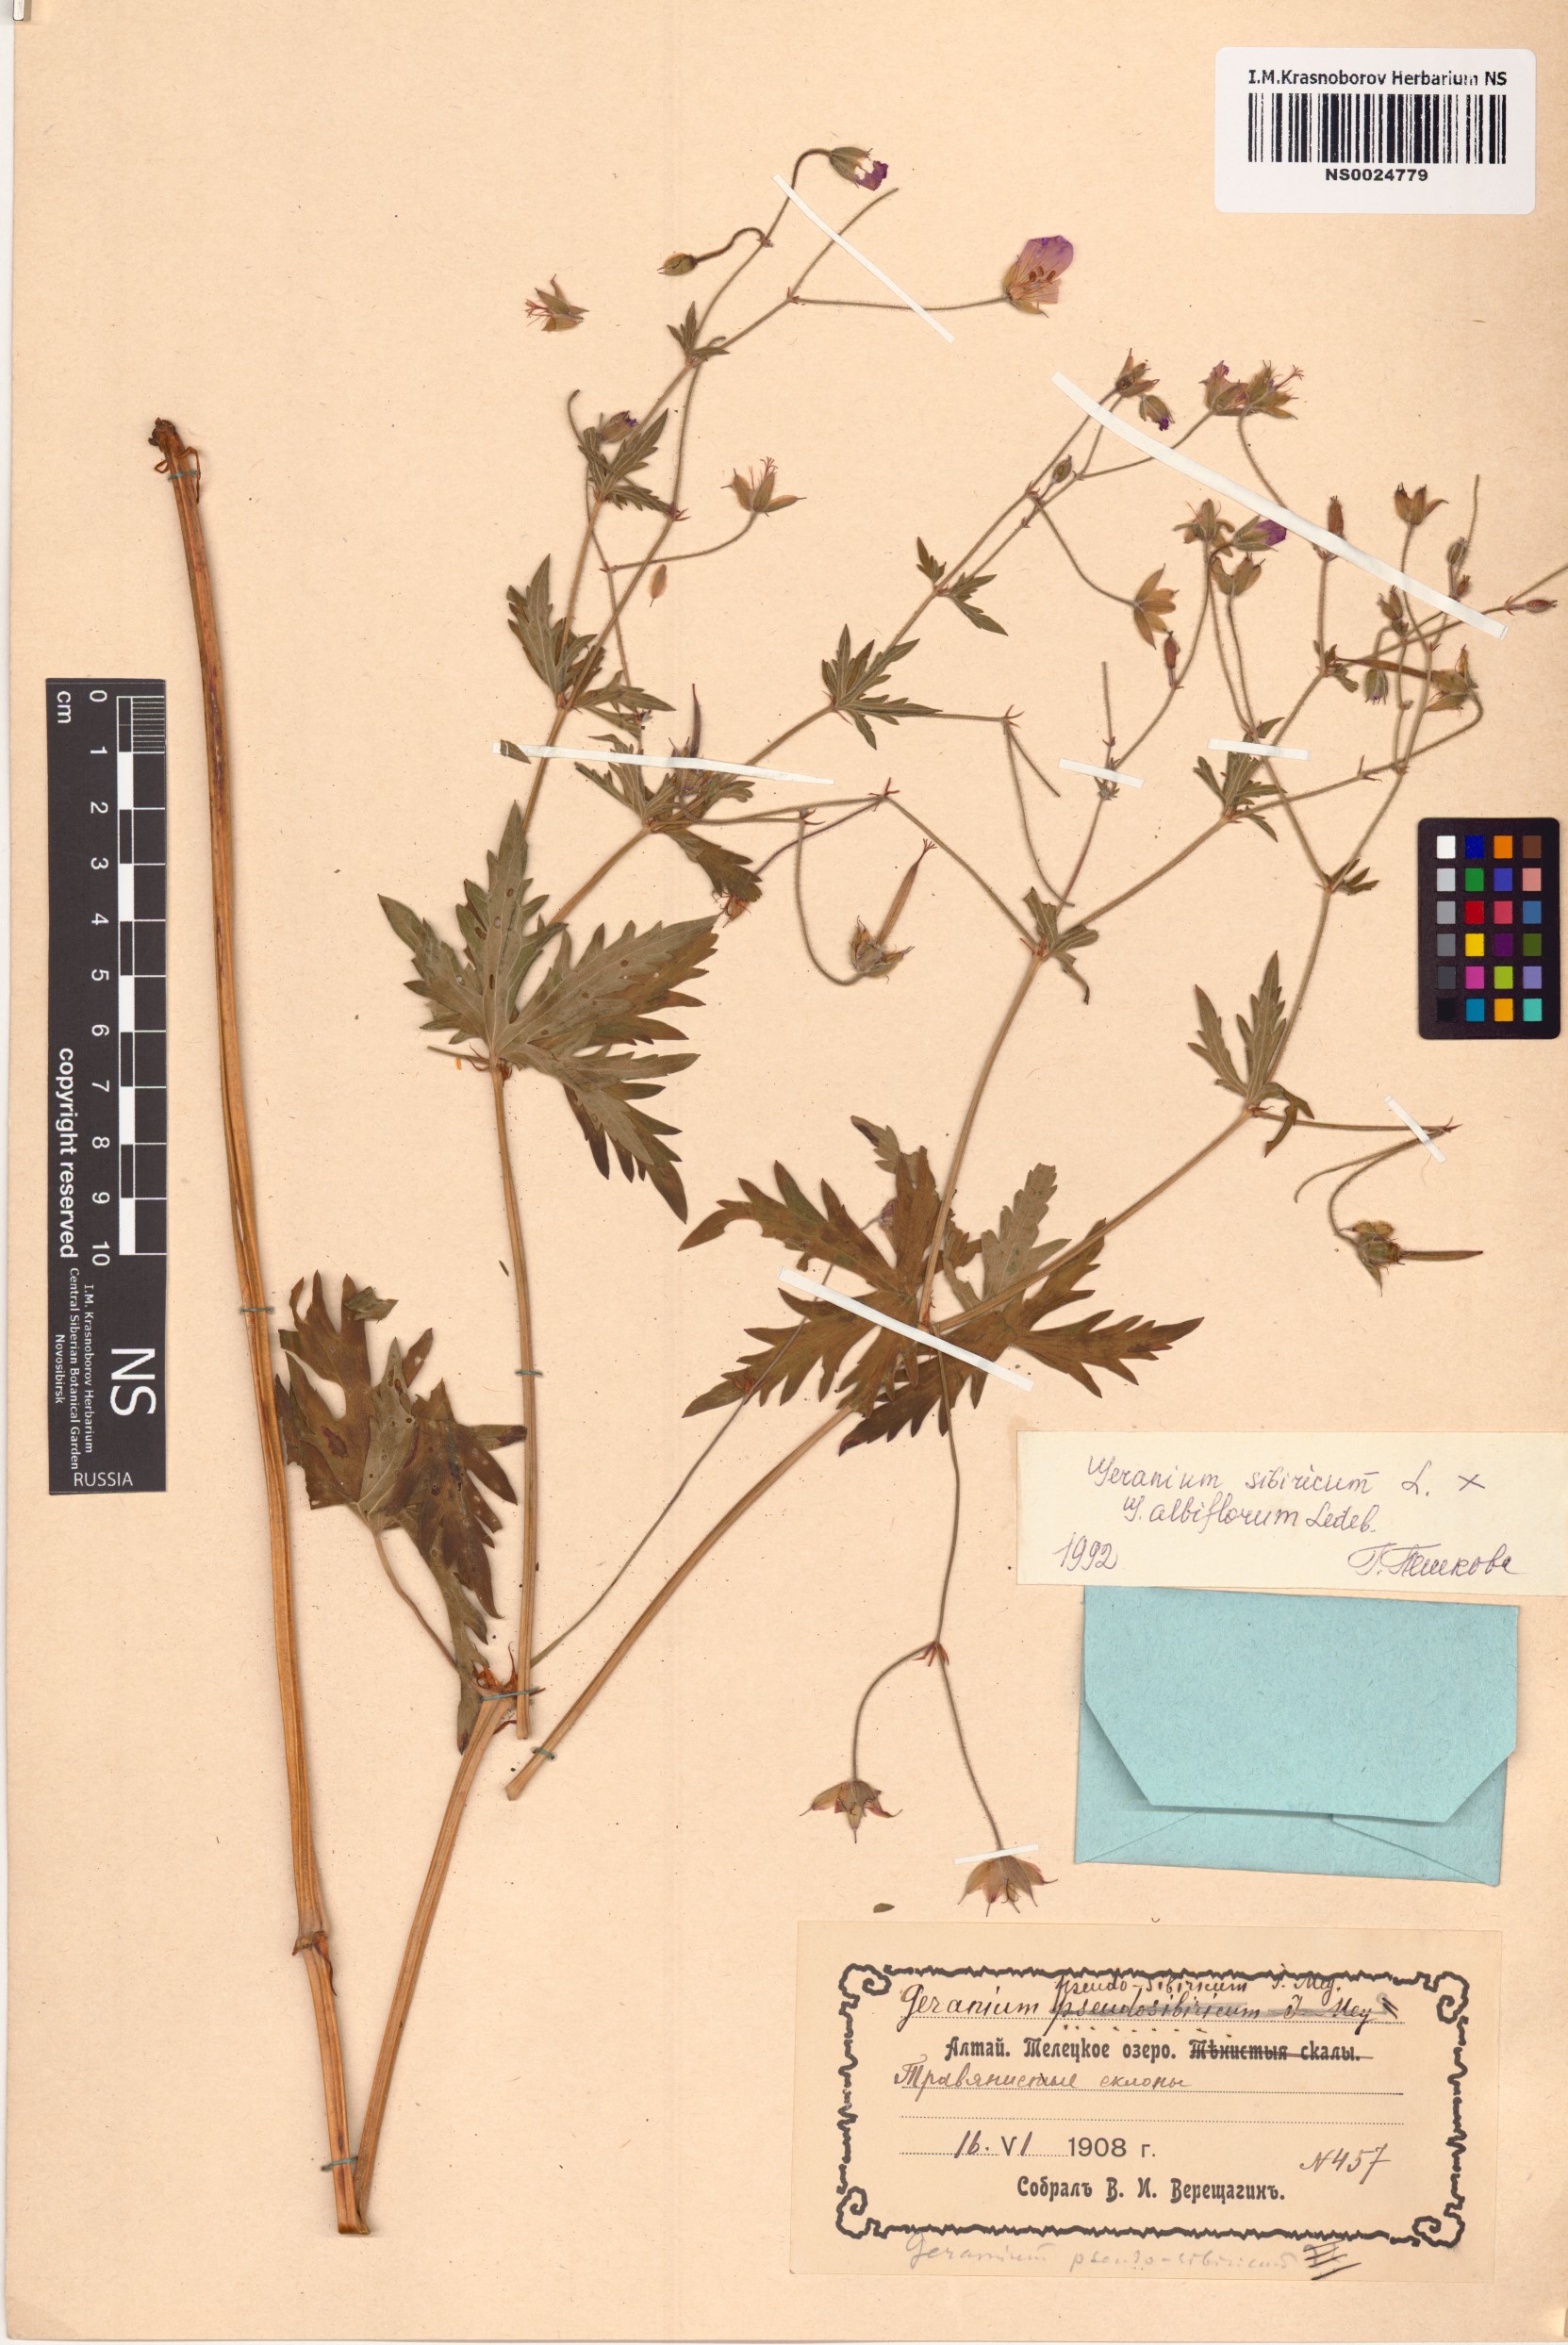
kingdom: Plantae
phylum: Tracheophyta
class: Magnoliopsida
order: Geraniales
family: Geraniaceae
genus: Geranium
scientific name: Geranium sibiricum
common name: Siberian crane's-bill
